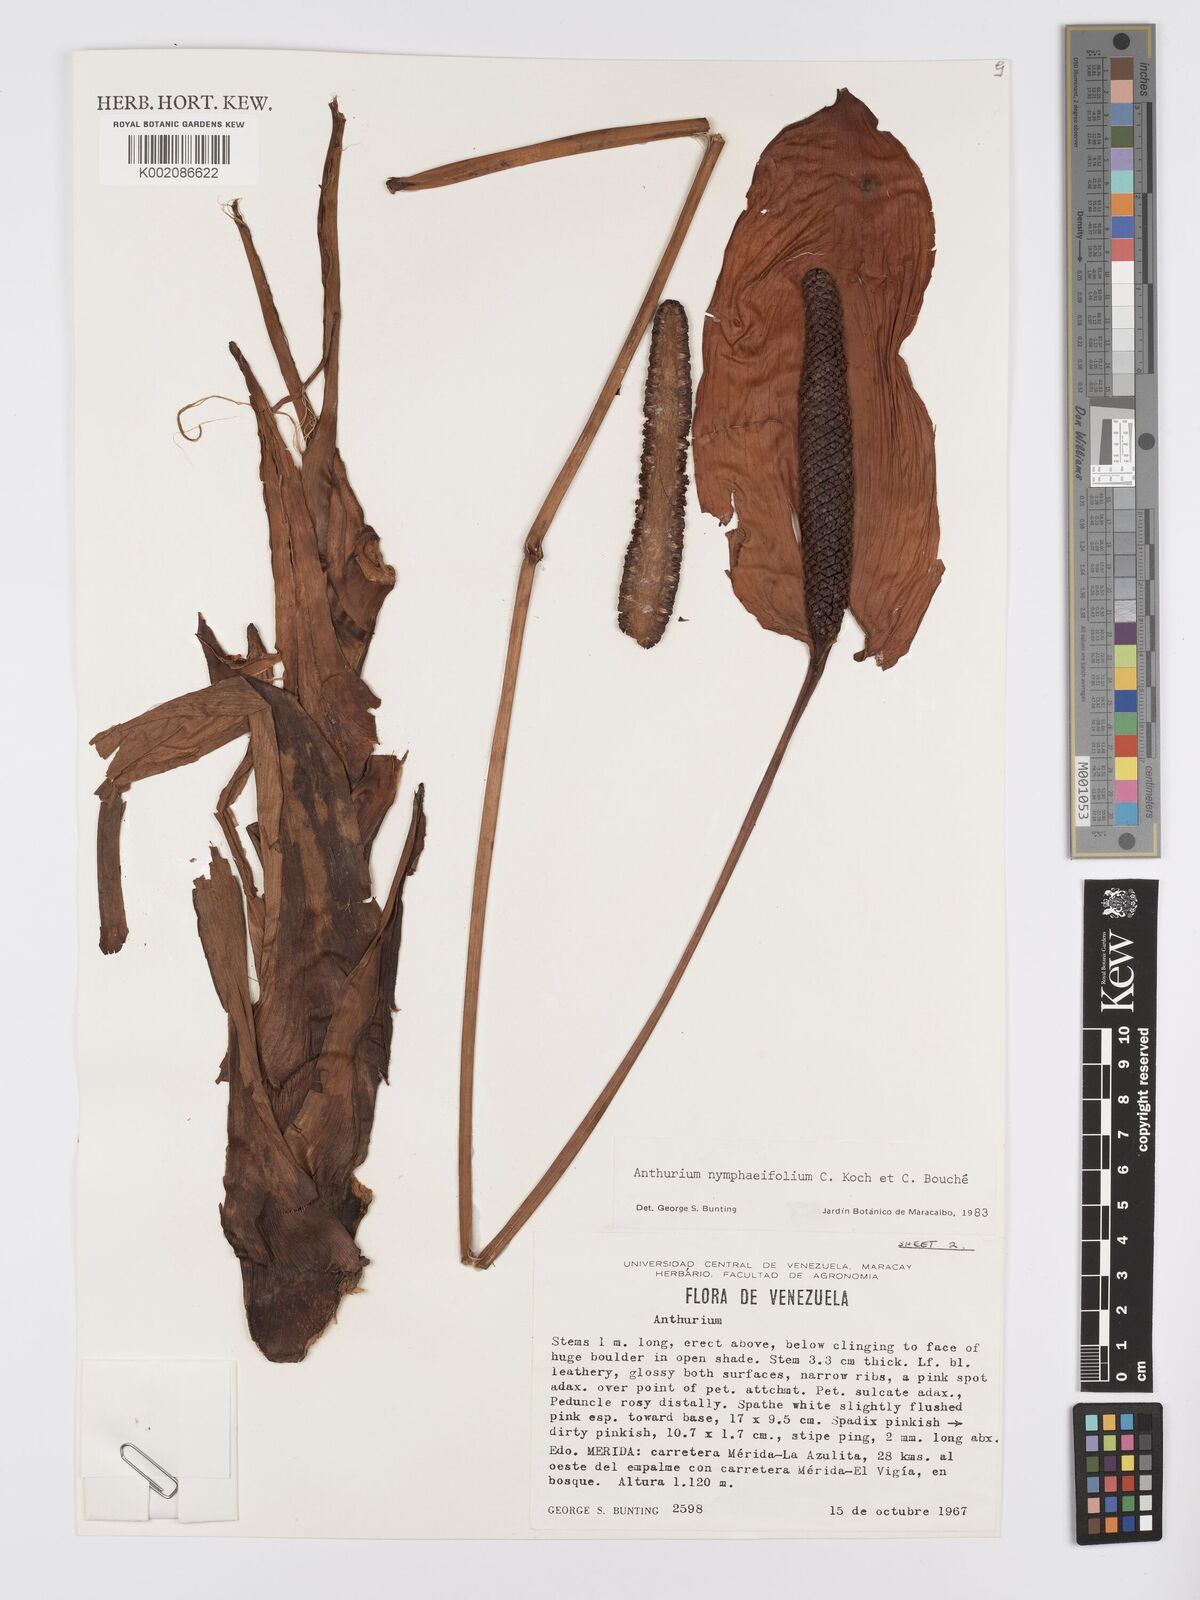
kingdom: Plantae
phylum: Tracheophyta
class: Liliopsida
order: Alismatales
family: Araceae
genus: Anthurium
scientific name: Anthurium nymphaeifolium
